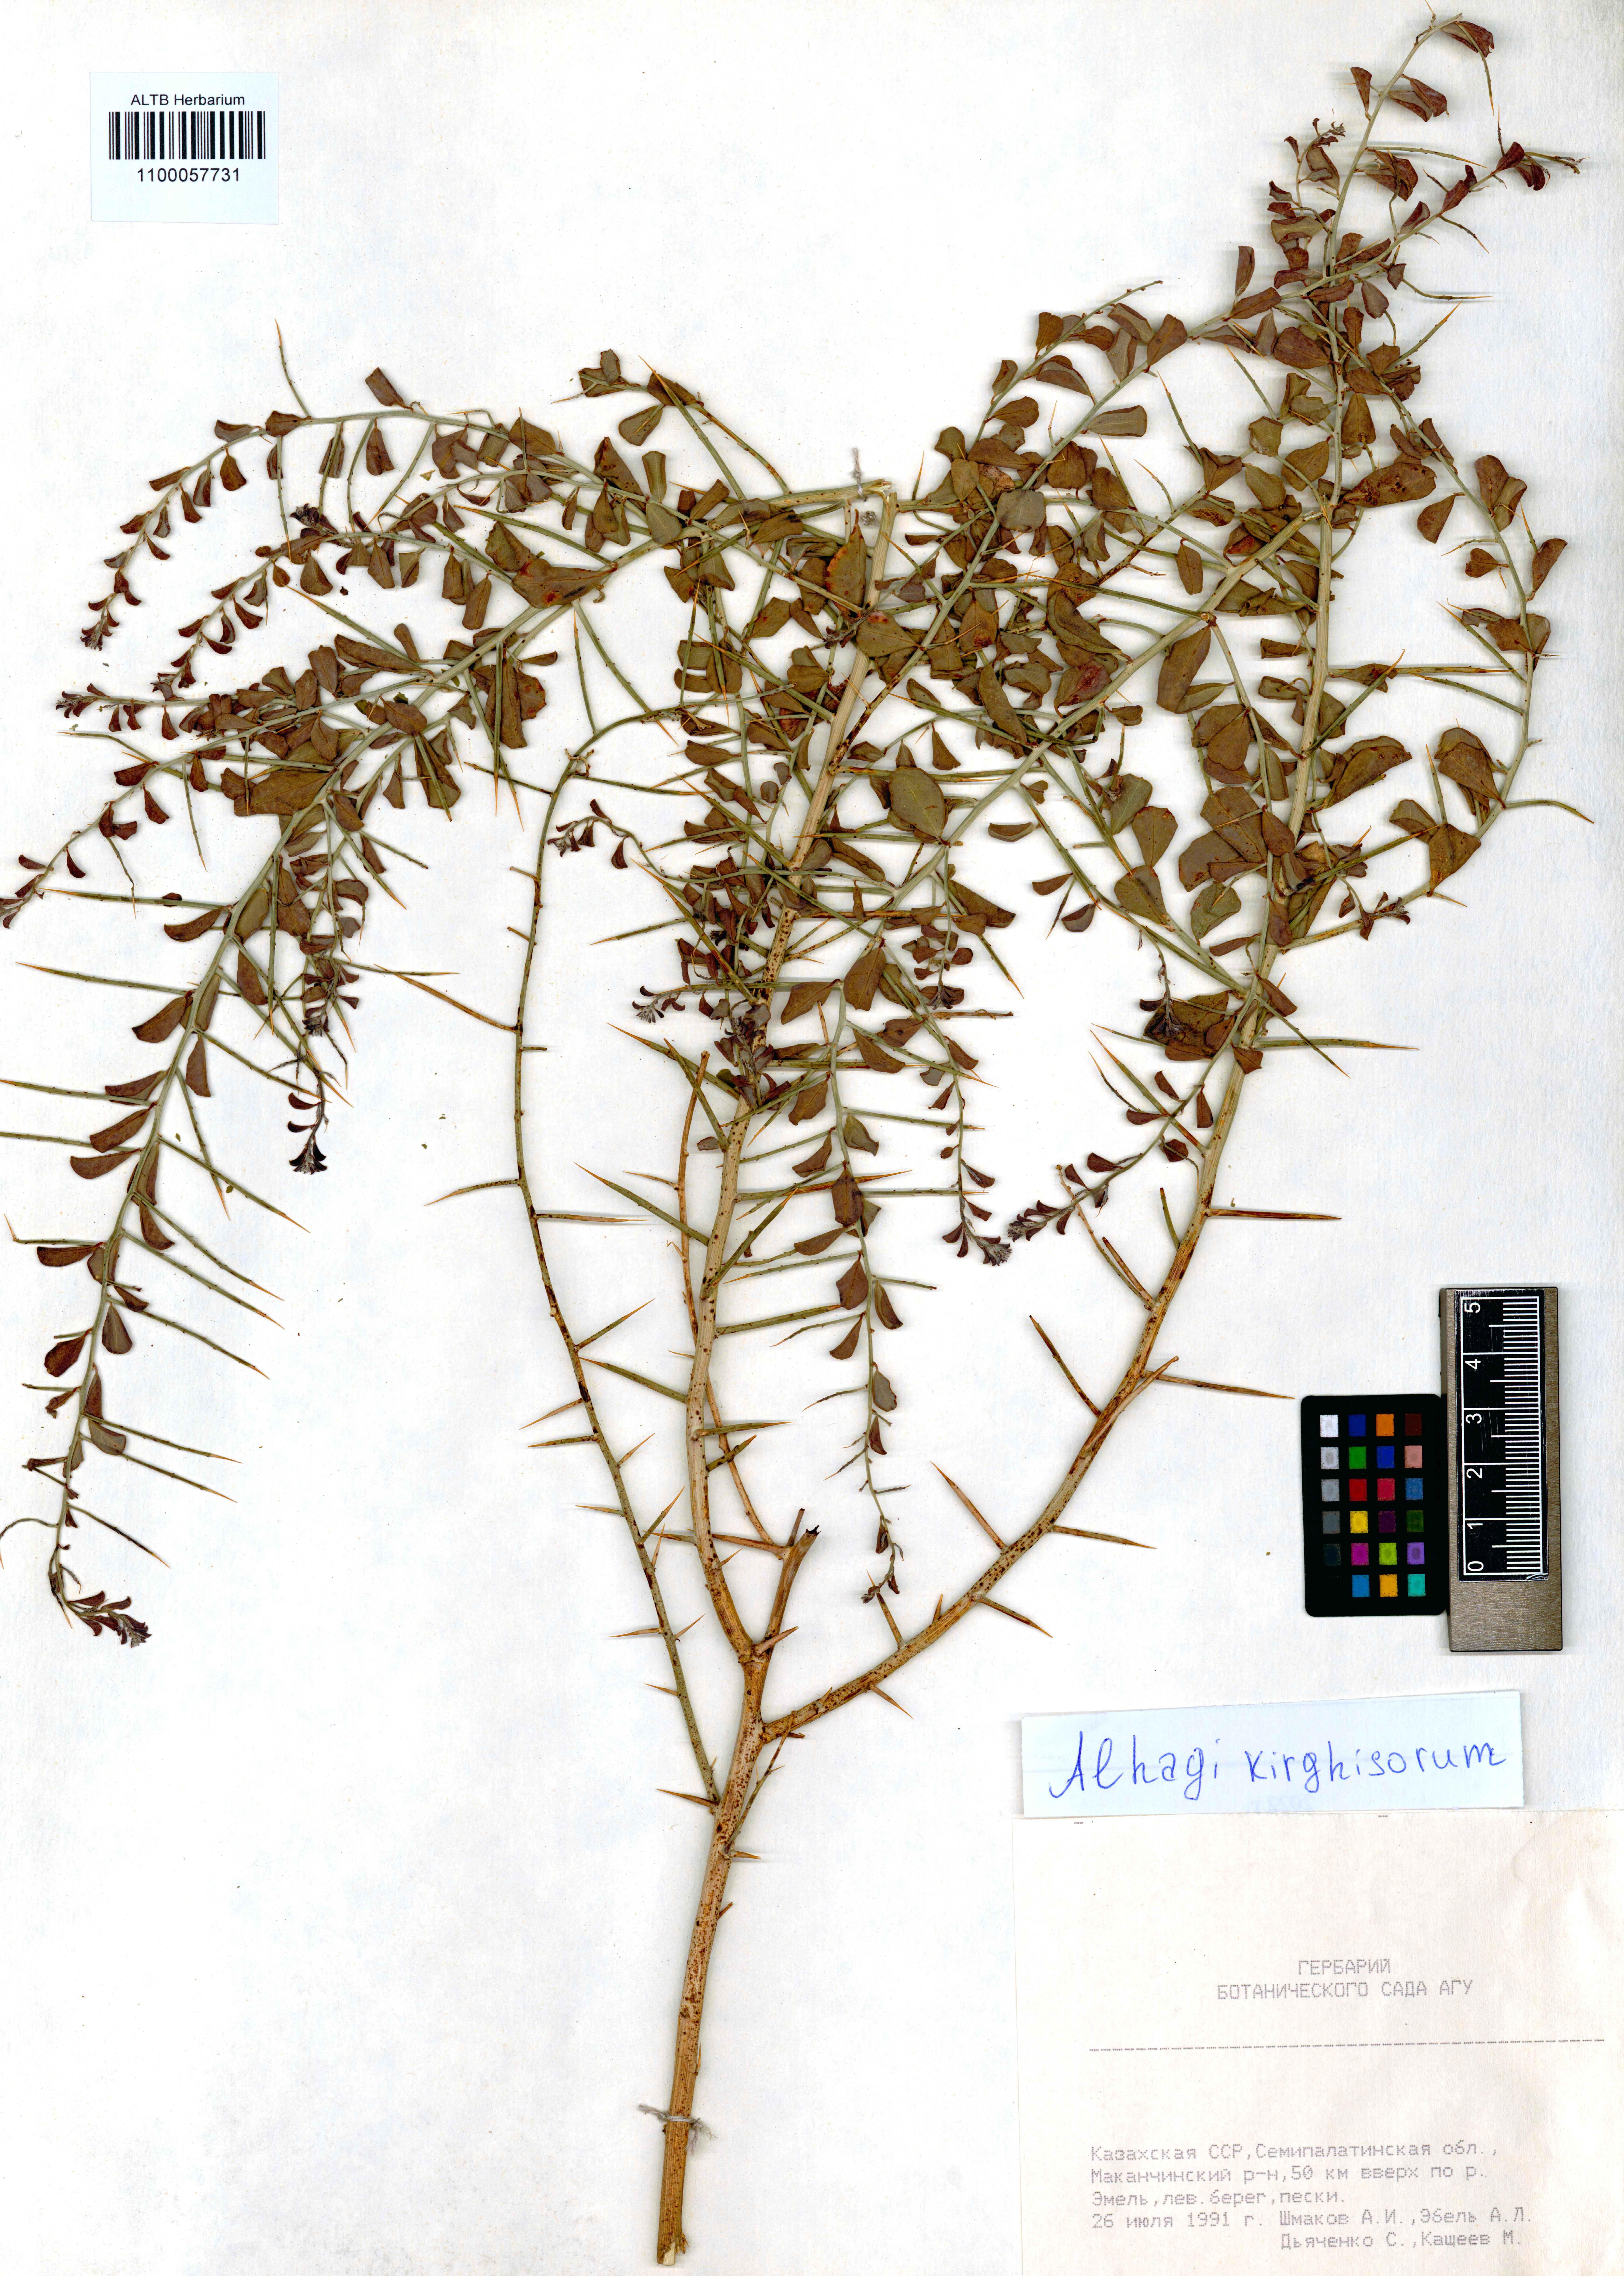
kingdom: Plantae
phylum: Tracheophyta
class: Magnoliopsida
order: Fabales
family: Fabaceae
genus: Alhagi
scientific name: Alhagi kirghisorum
